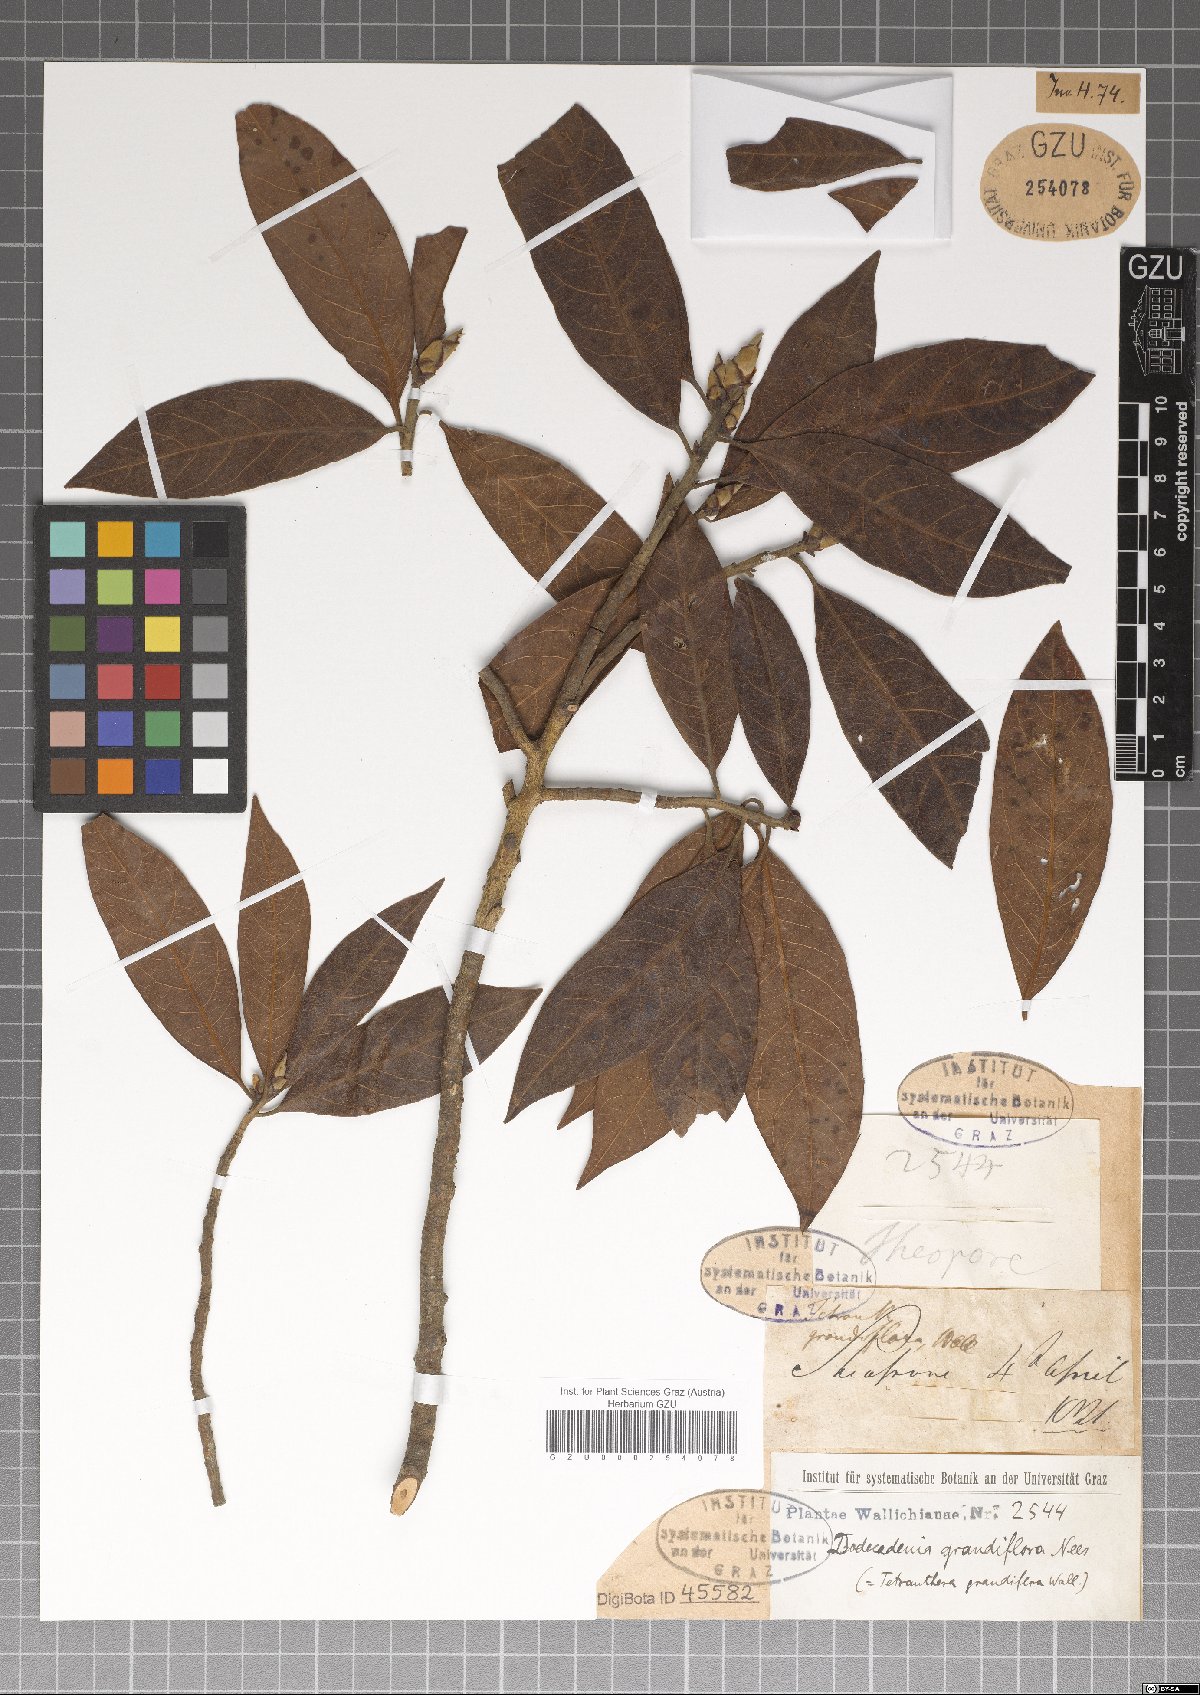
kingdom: Plantae
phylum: Tracheophyta
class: Magnoliopsida
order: Laurales
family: Lauraceae
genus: Dodecadenia
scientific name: Dodecadenia grandiflora
